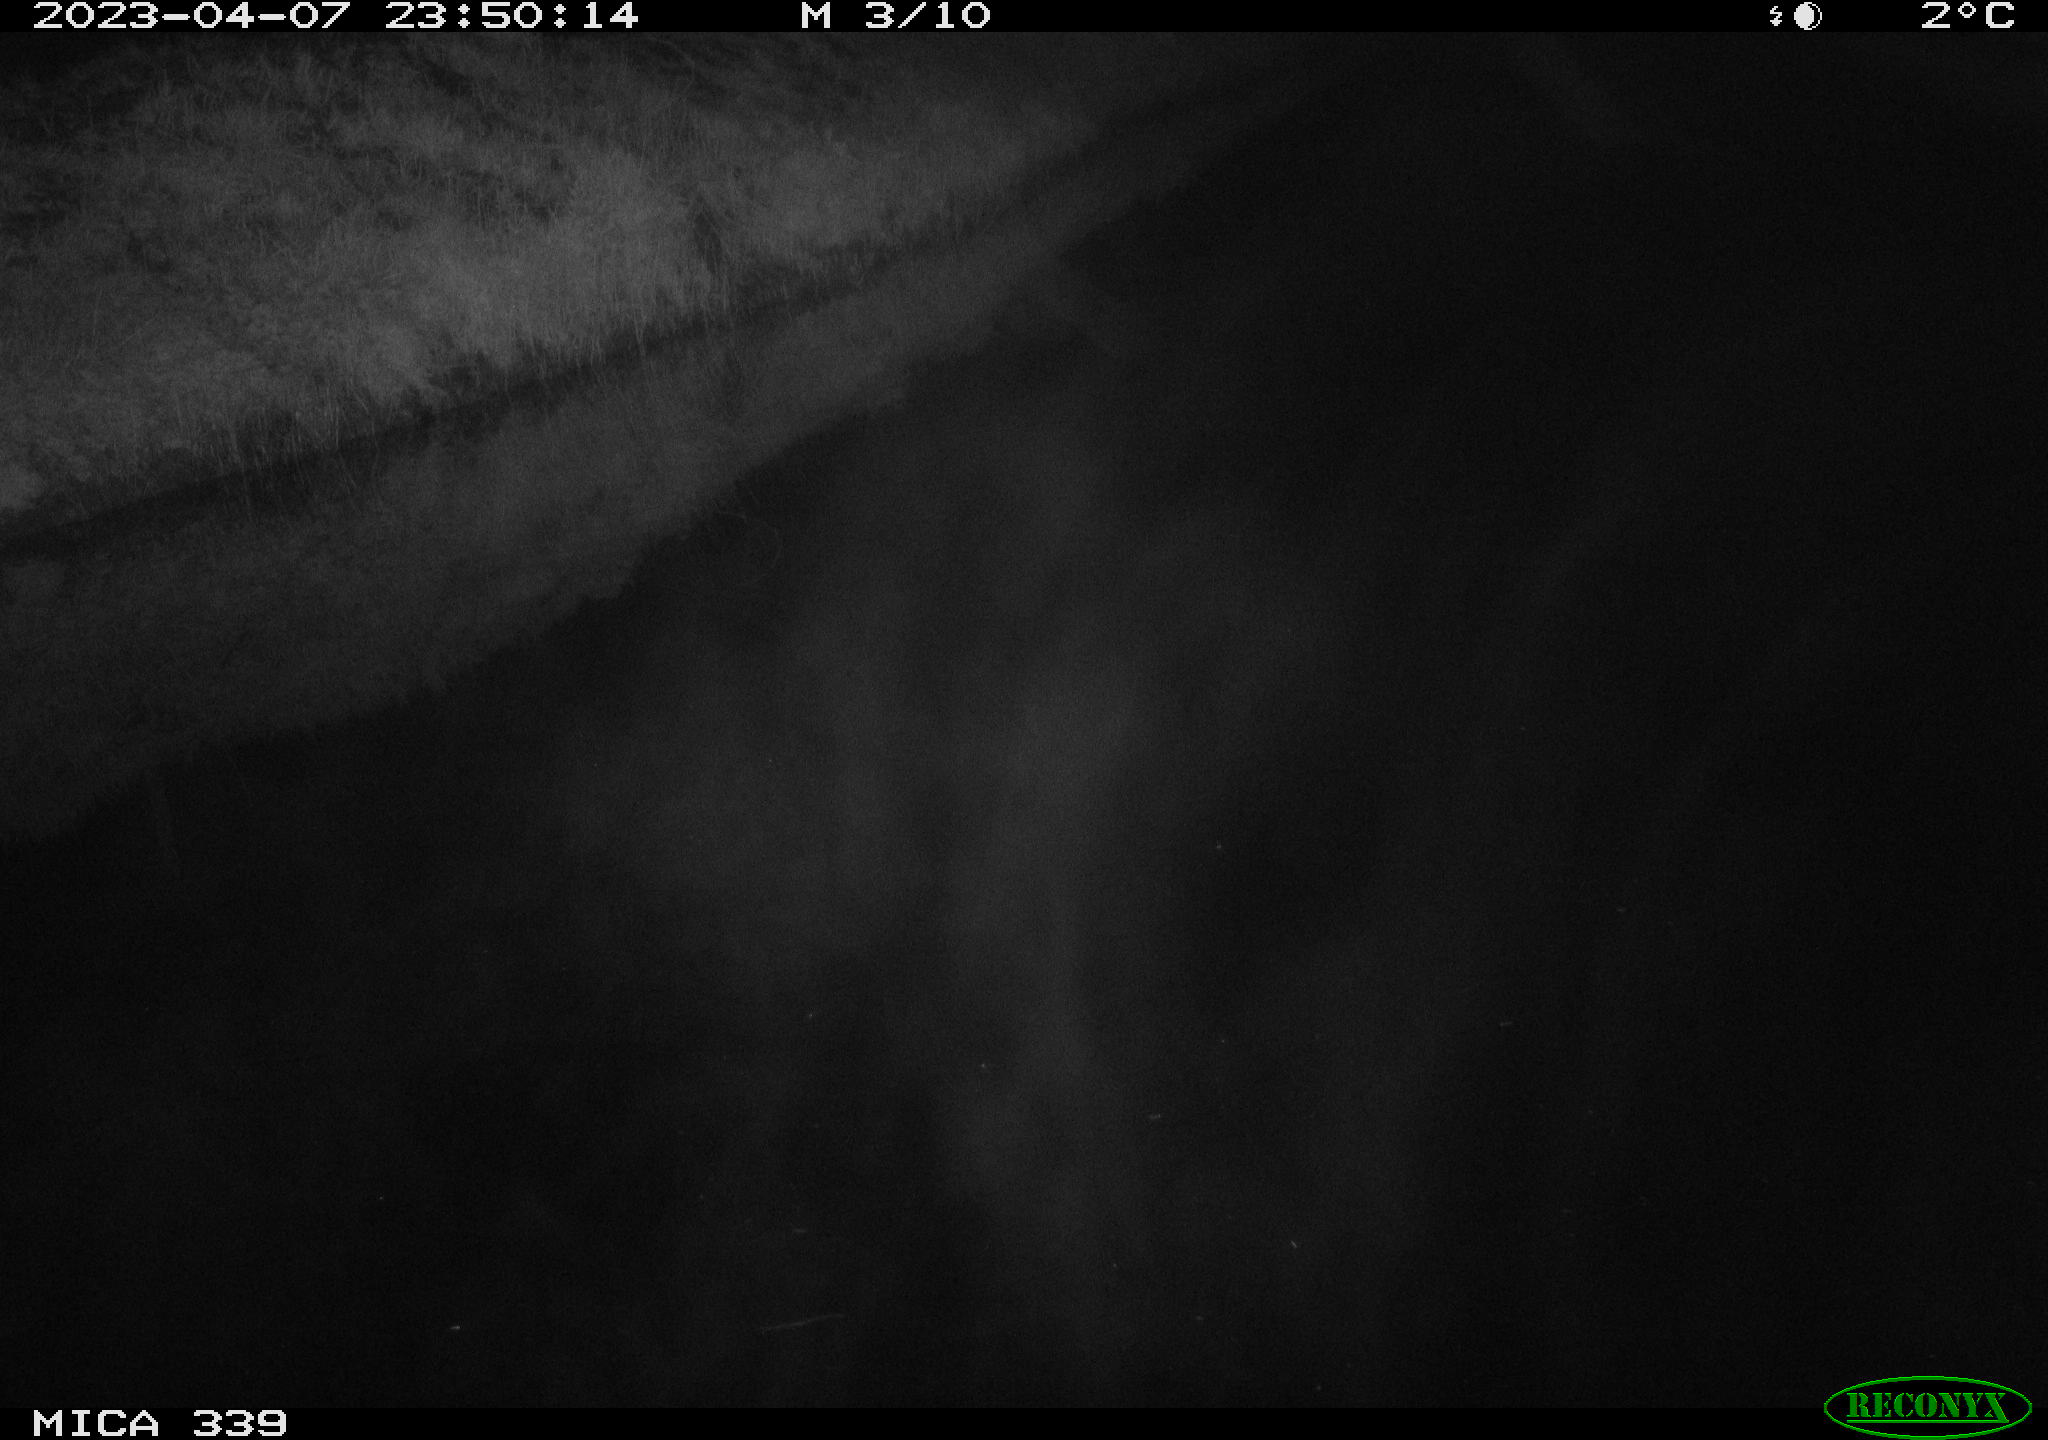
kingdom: Animalia
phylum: Chordata
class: Aves
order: Pelecaniformes
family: Ardeidae
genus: Ardea
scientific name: Ardea cinerea
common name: Grey heron
